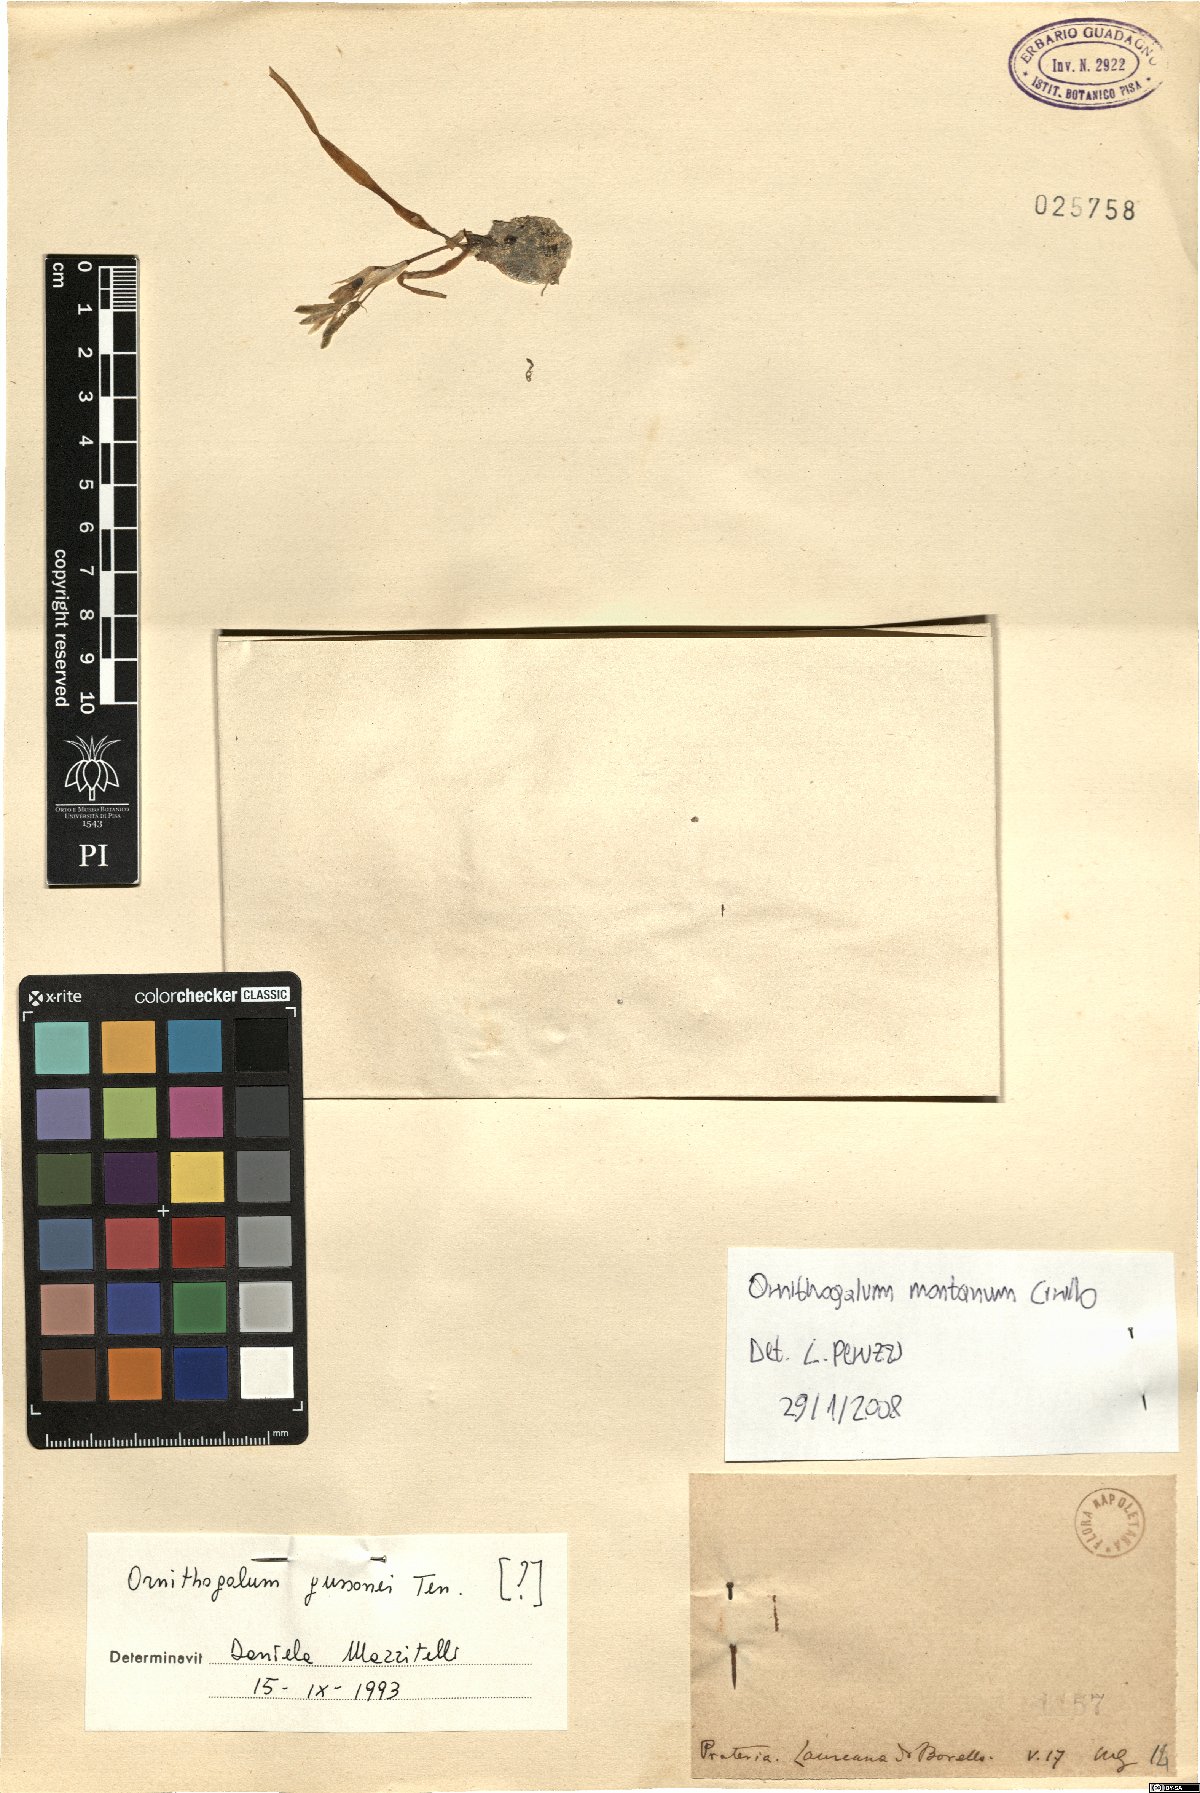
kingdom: Plantae
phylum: Tracheophyta
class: Liliopsida
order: Asparagales
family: Asparagaceae
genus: Ornithogalum
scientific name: Ornithogalum montanum
